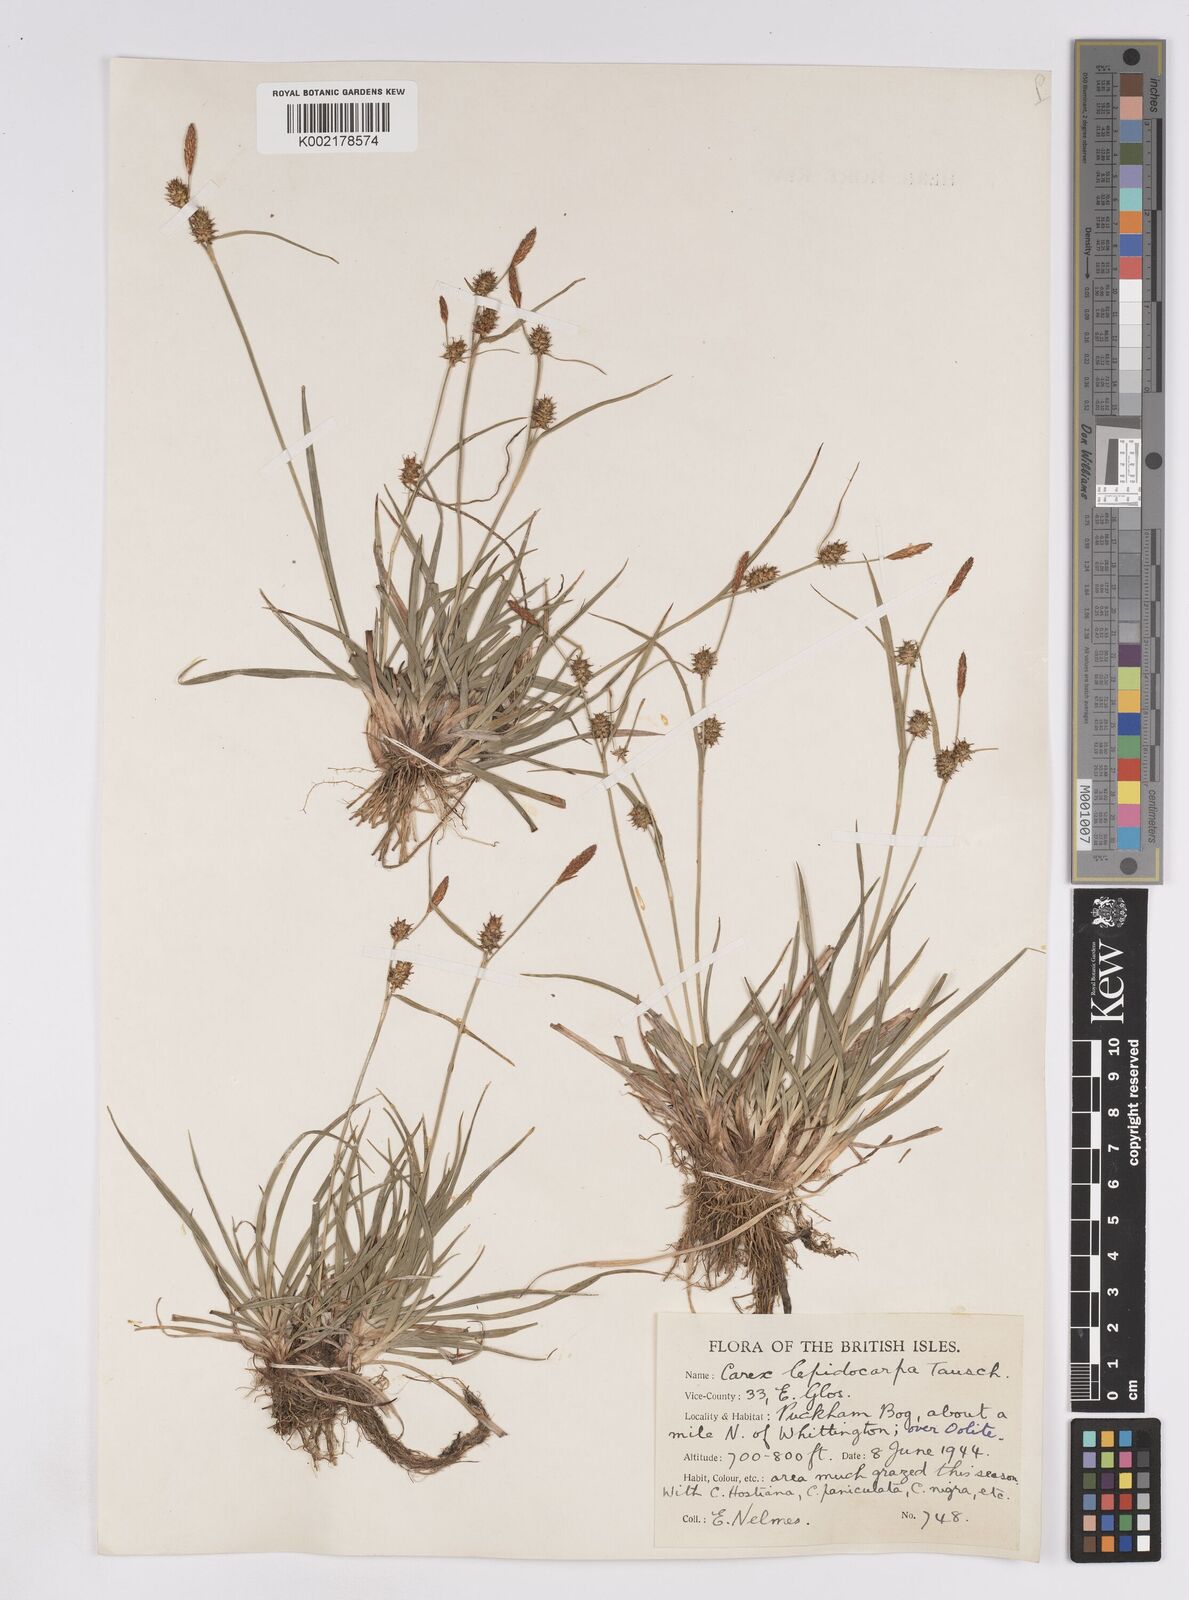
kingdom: Plantae
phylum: Tracheophyta
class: Liliopsida
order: Poales
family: Cyperaceae
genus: Carex
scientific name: Carex lepidocarpa
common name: Long-stalked yellow-sedge
